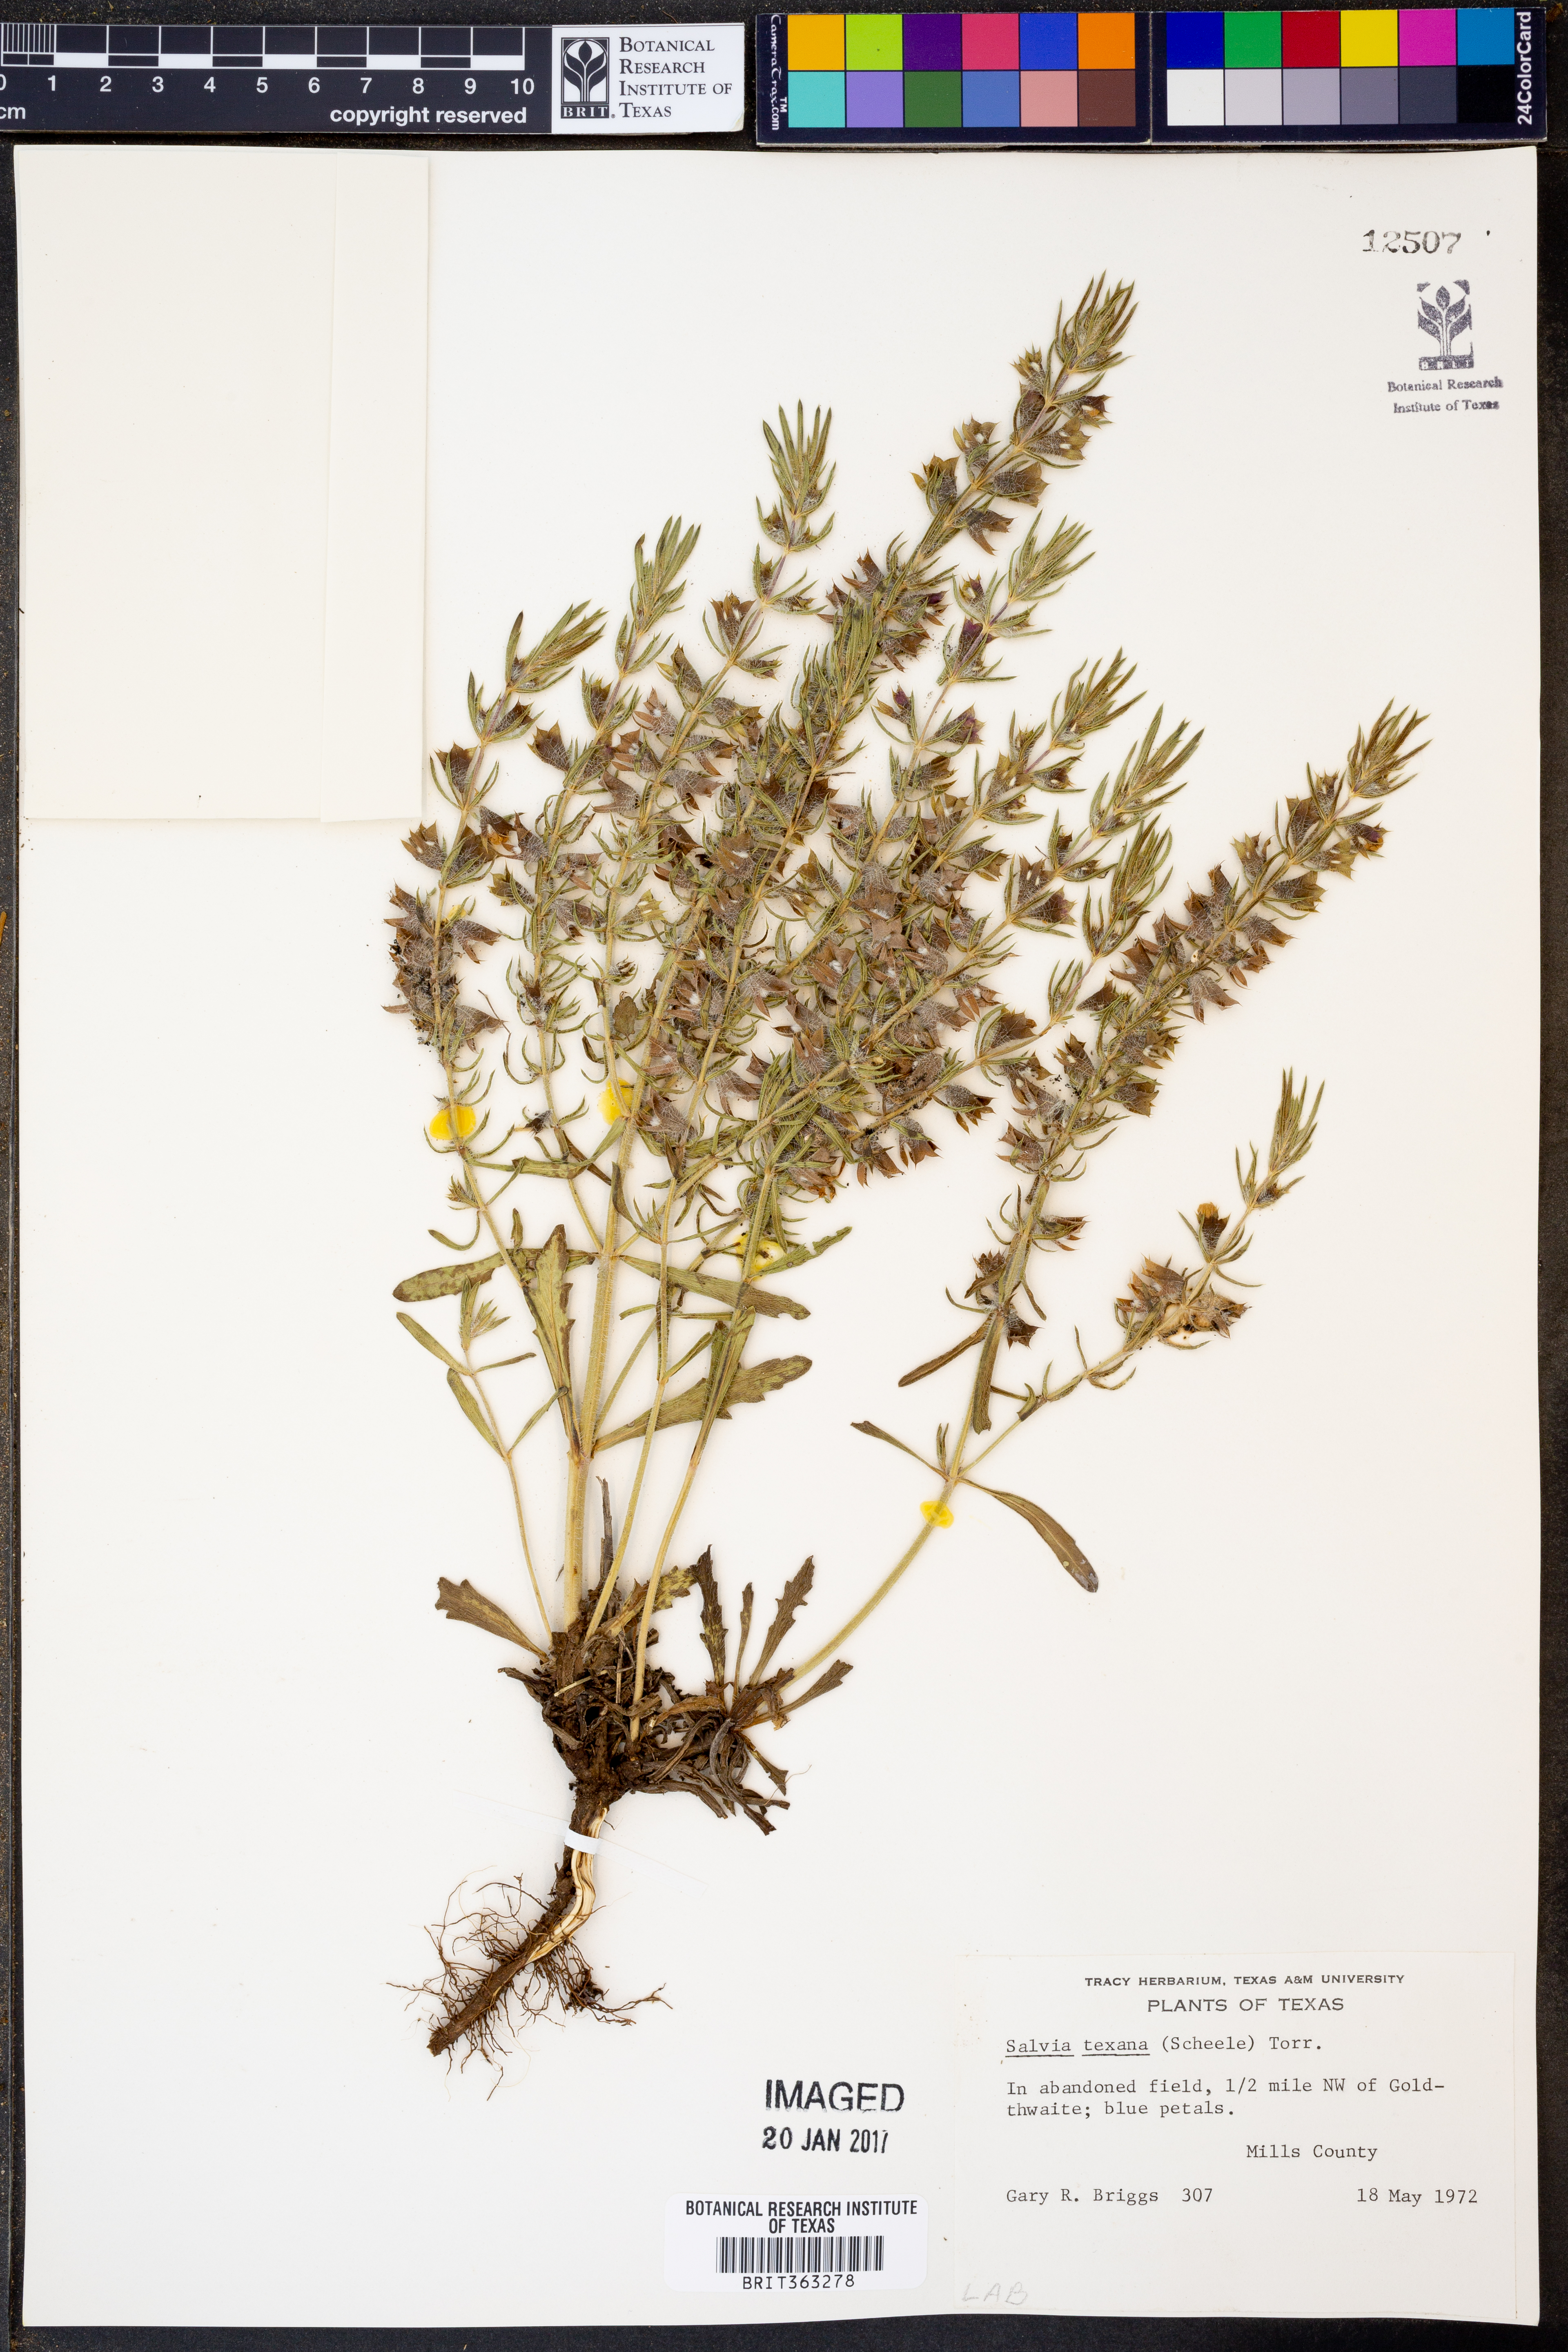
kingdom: Plantae
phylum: Tracheophyta
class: Magnoliopsida
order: Lamiales
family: Lamiaceae
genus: Salvia
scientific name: Salvia texana
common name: Texas sage
